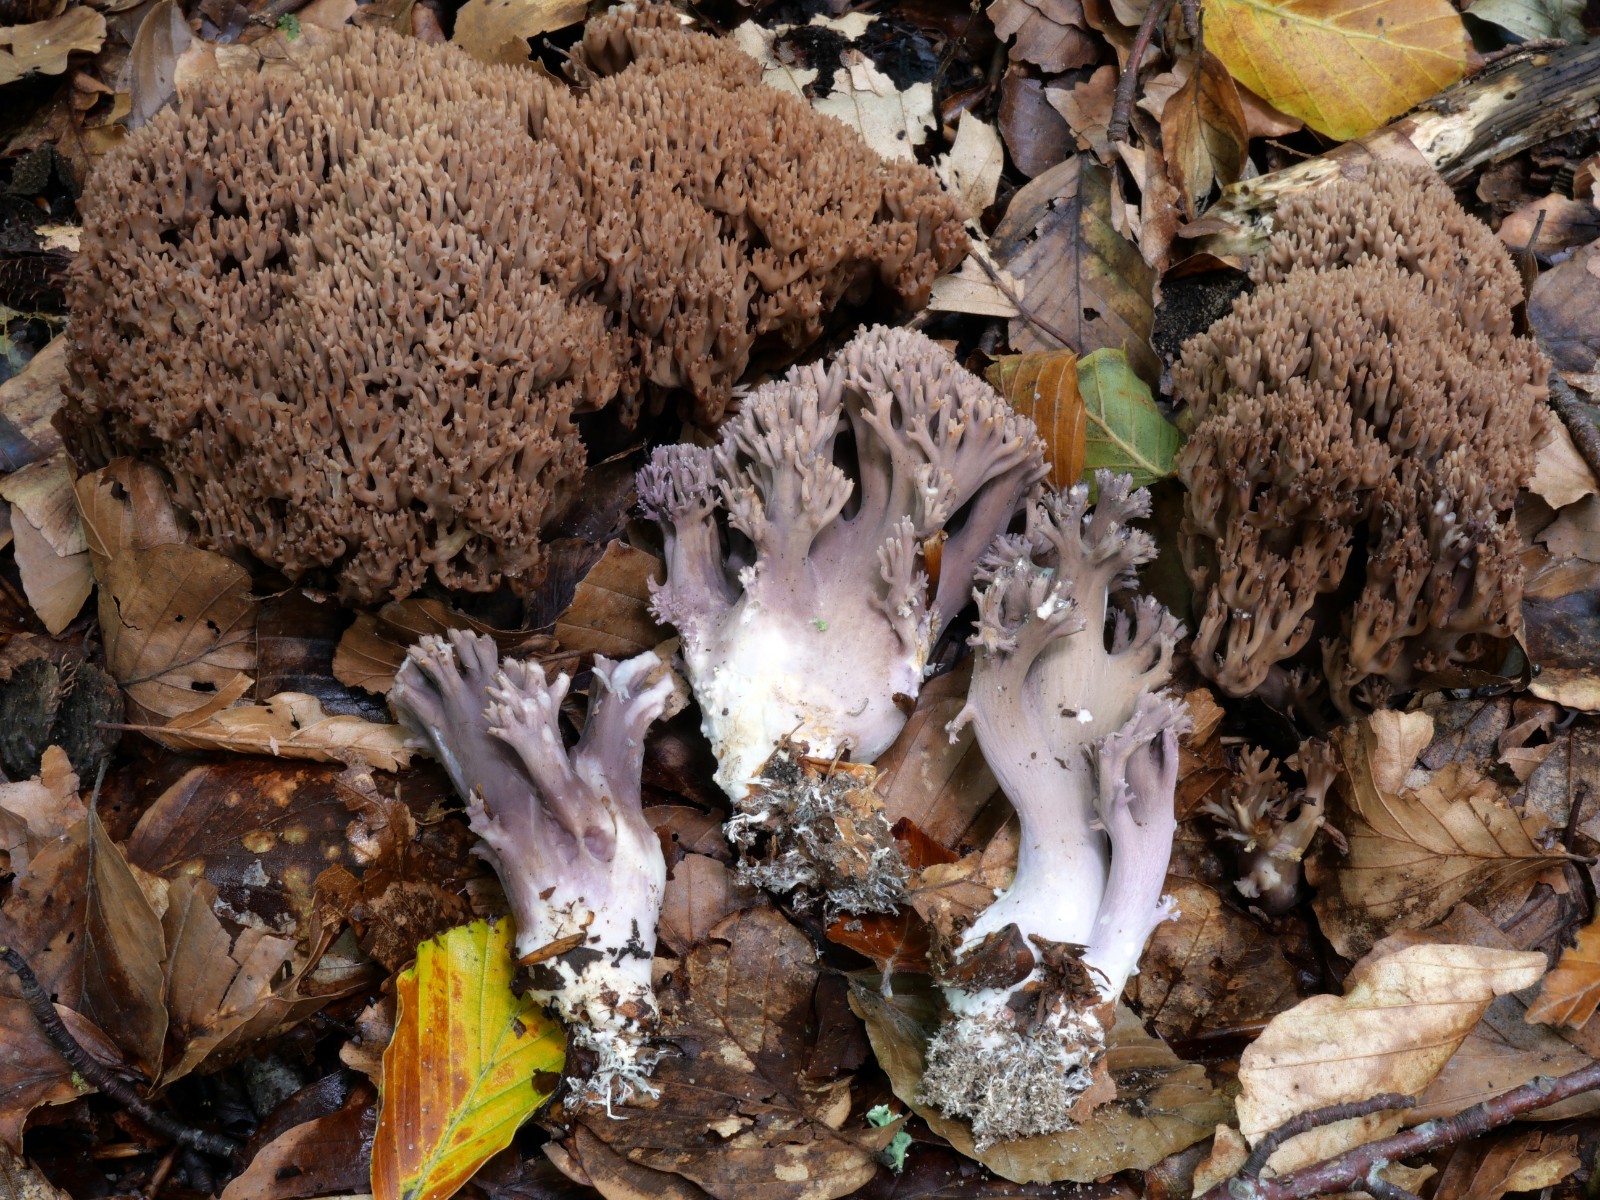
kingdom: Fungi
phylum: Basidiomycota
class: Agaricomycetes
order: Gomphales
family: Gomphaceae
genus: Ramaria
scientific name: Ramaria fumigata
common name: violet koralsvamp
